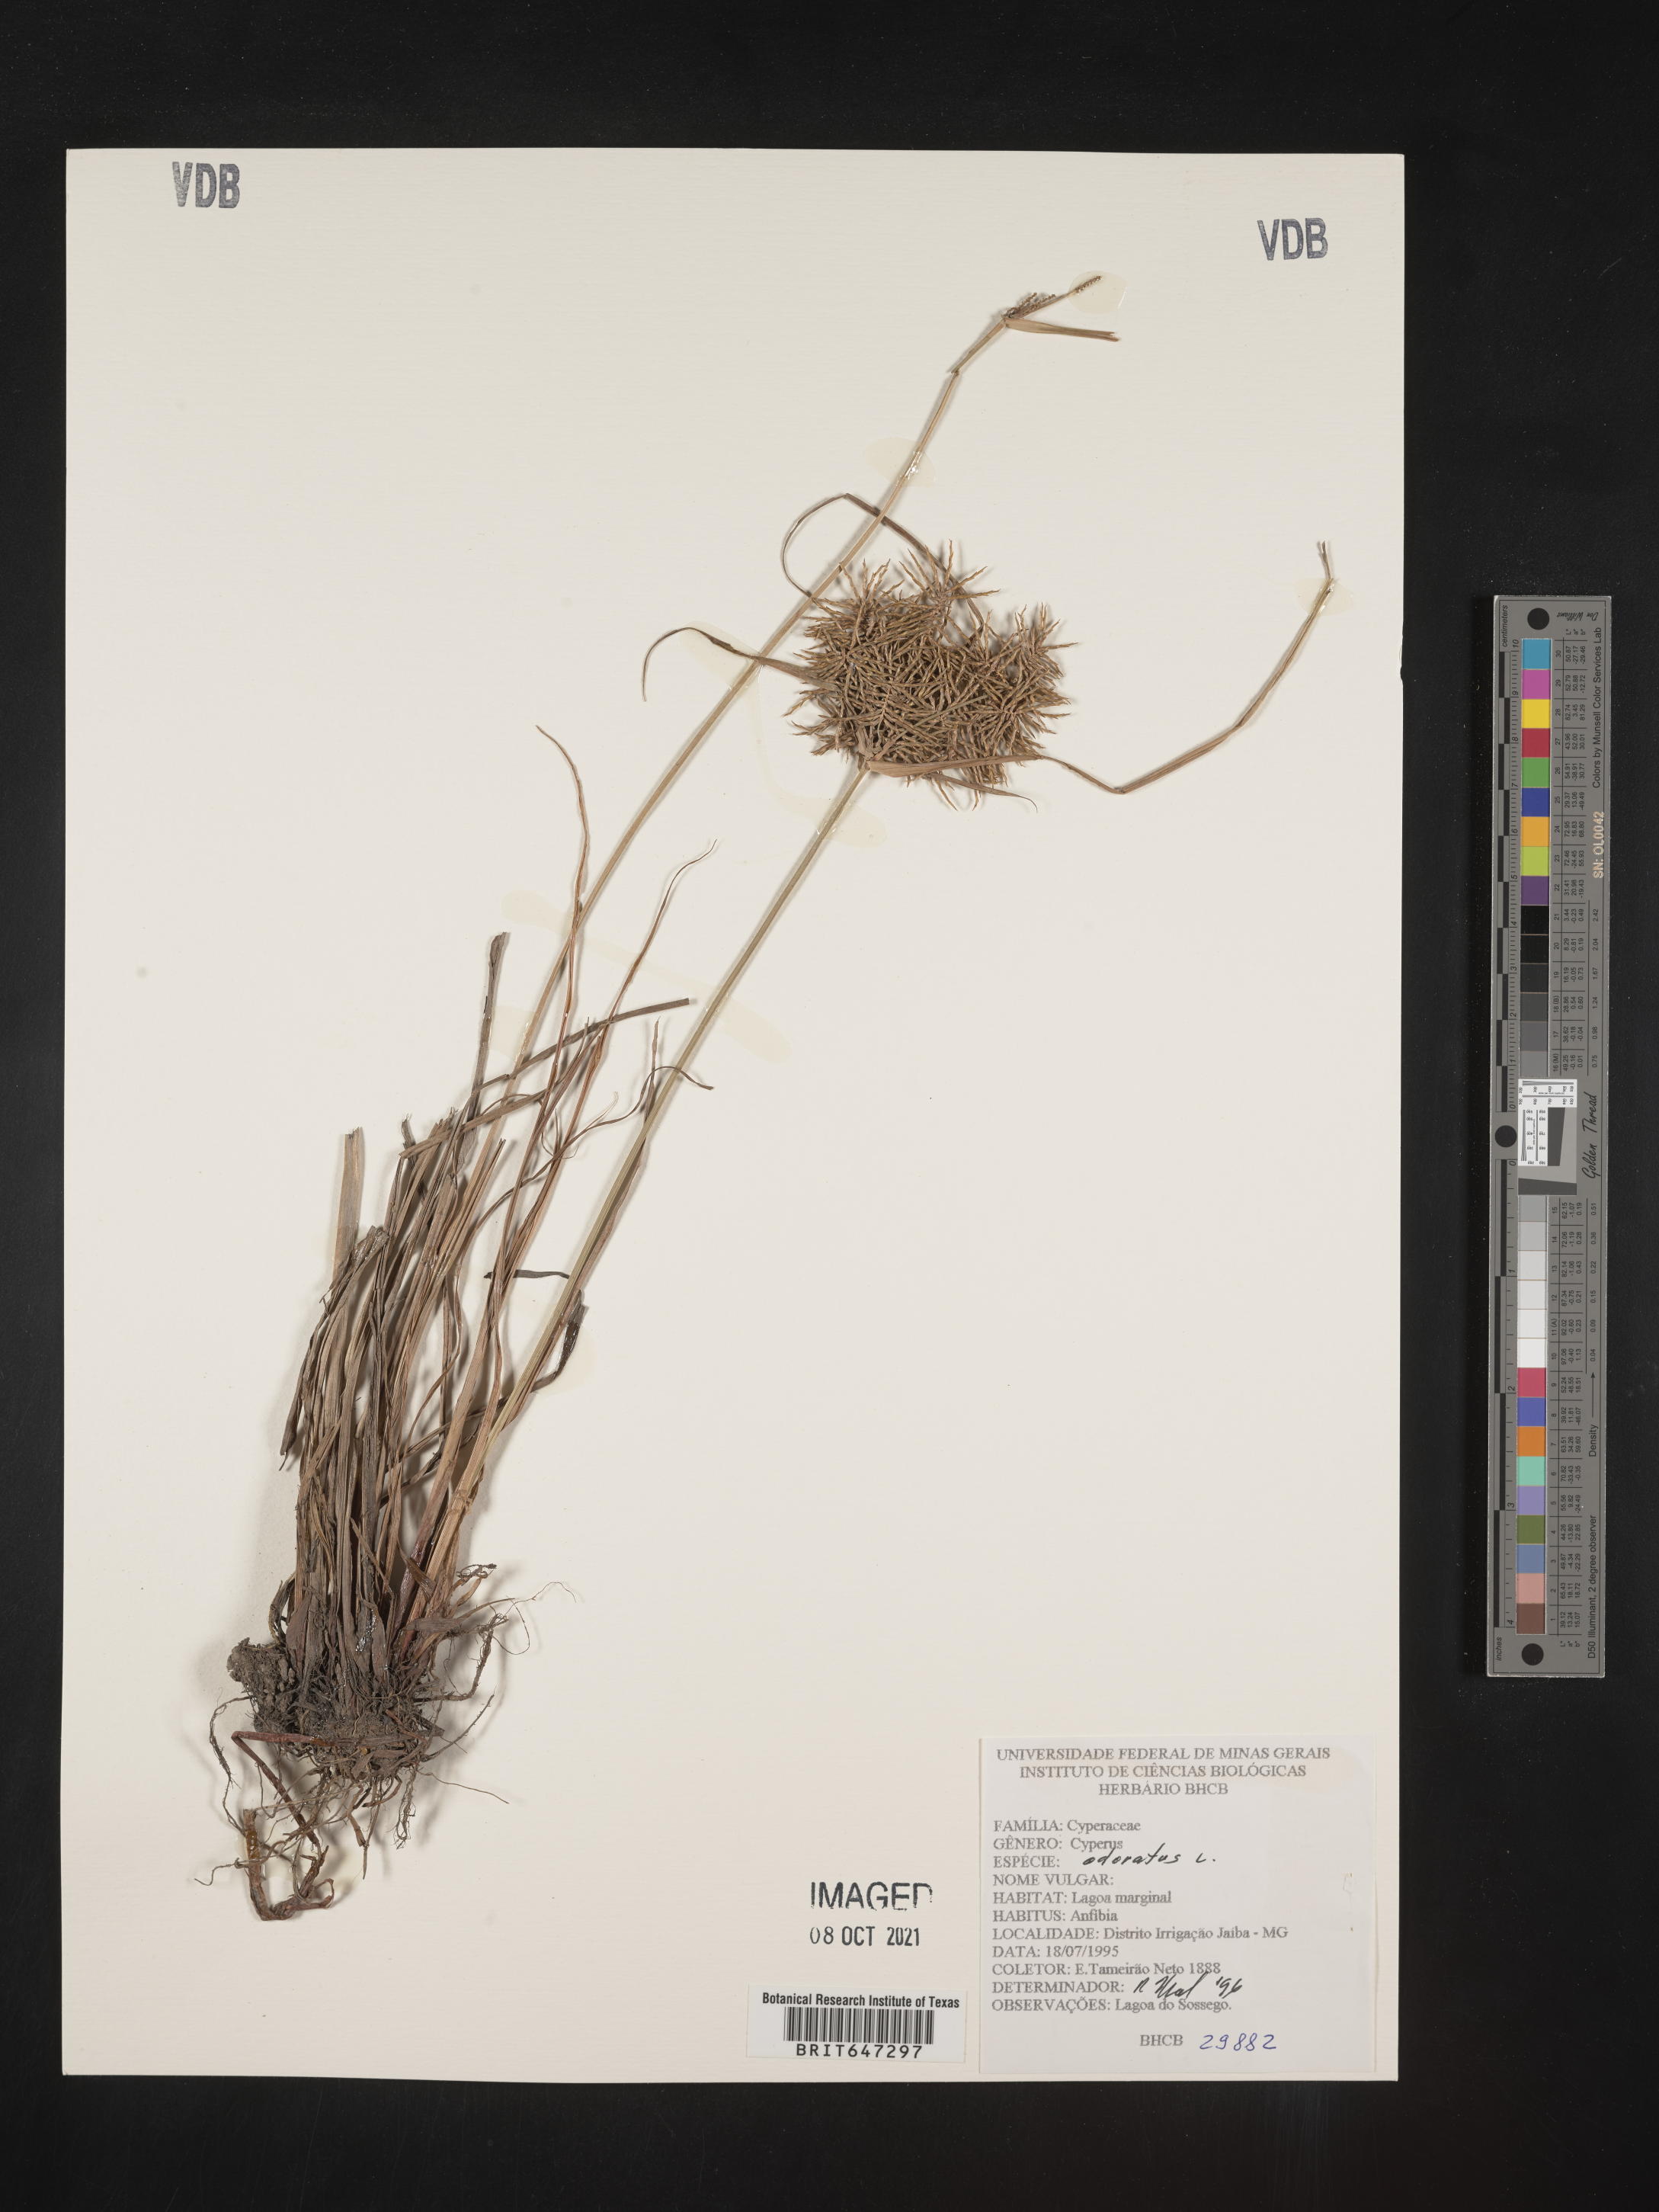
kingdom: Plantae
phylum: Tracheophyta
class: Liliopsida
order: Poales
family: Cyperaceae
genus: Cyperus
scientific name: Cyperus odoratus
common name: Fragrant flatsedge
